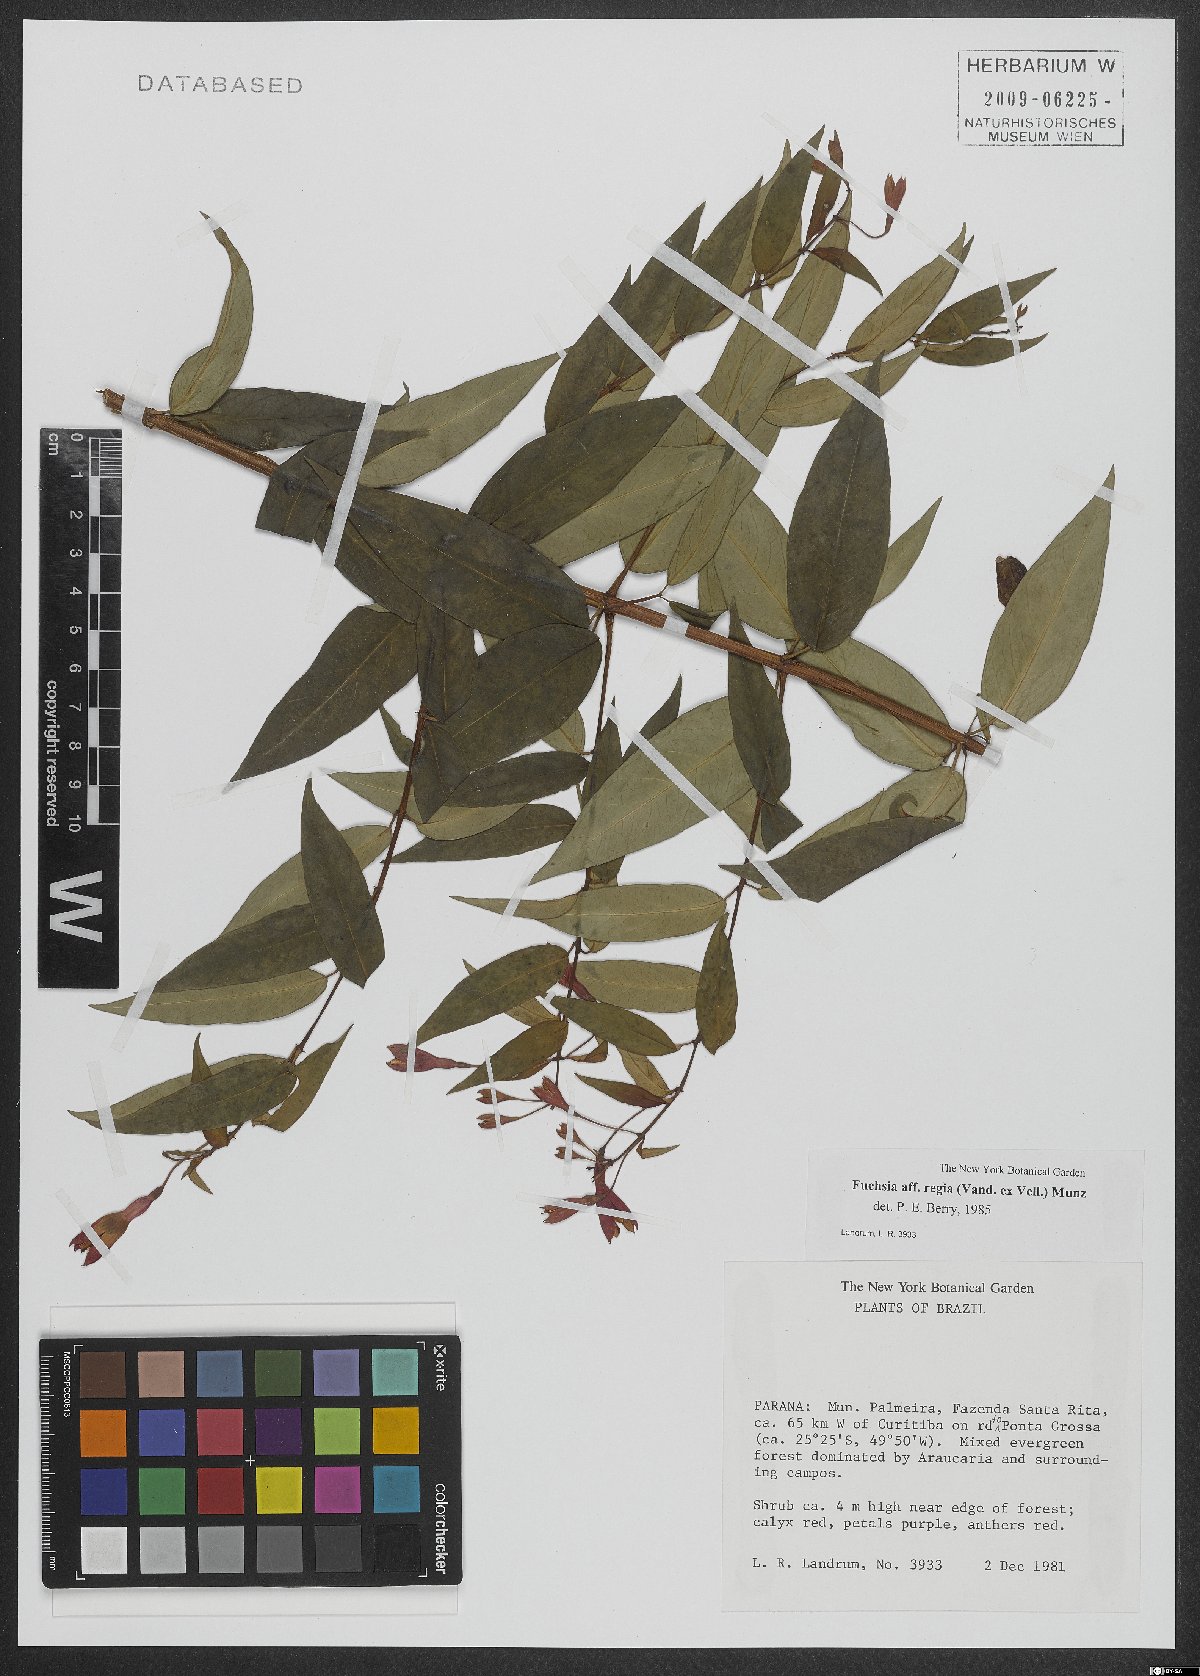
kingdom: Plantae
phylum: Tracheophyta
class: Magnoliopsida
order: Myrtales
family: Onagraceae
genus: Fuchsia
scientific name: Fuchsia regia
